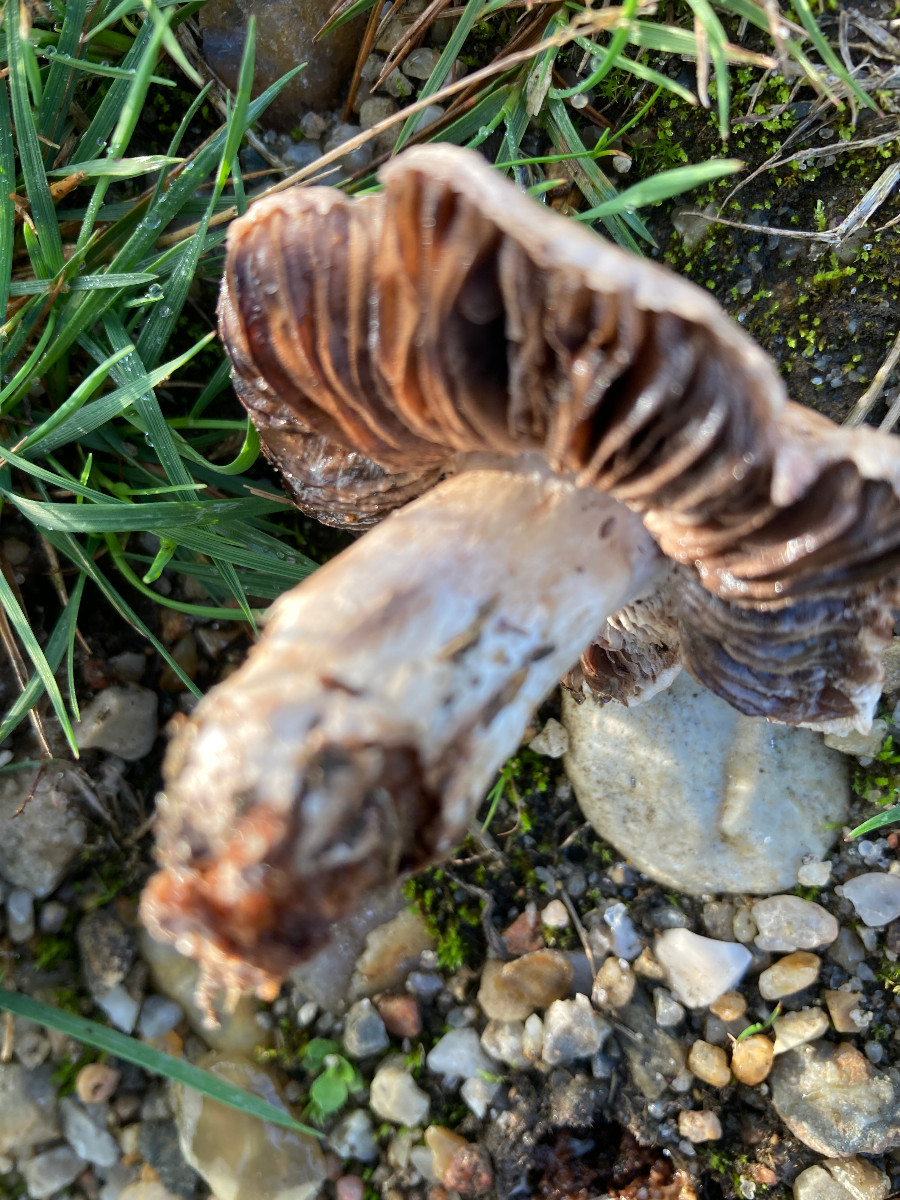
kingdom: Fungi
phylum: Basidiomycota
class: Agaricomycetes
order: Agaricales
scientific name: Agaricales
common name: champignonordenen
